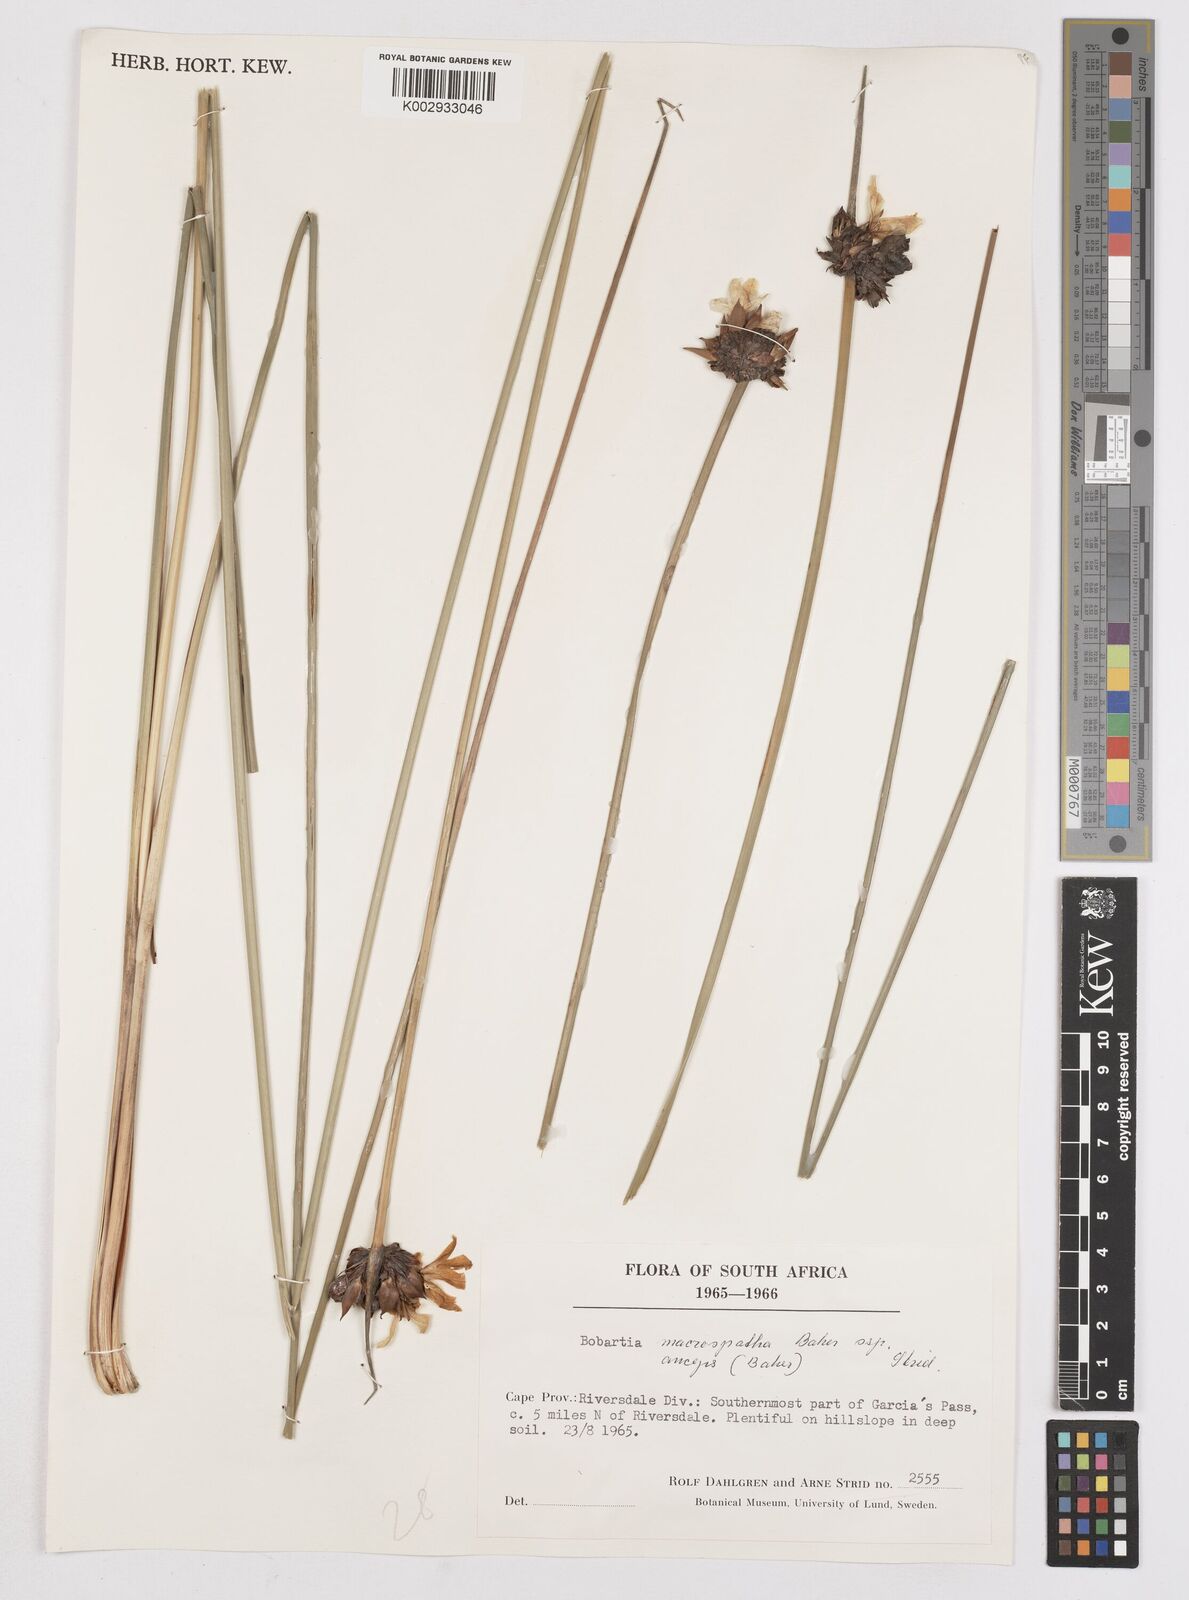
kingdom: Plantae
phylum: Tracheophyta
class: Liliopsida
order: Asparagales
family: Iridaceae
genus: Bobartia
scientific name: Bobartia macrospatha
